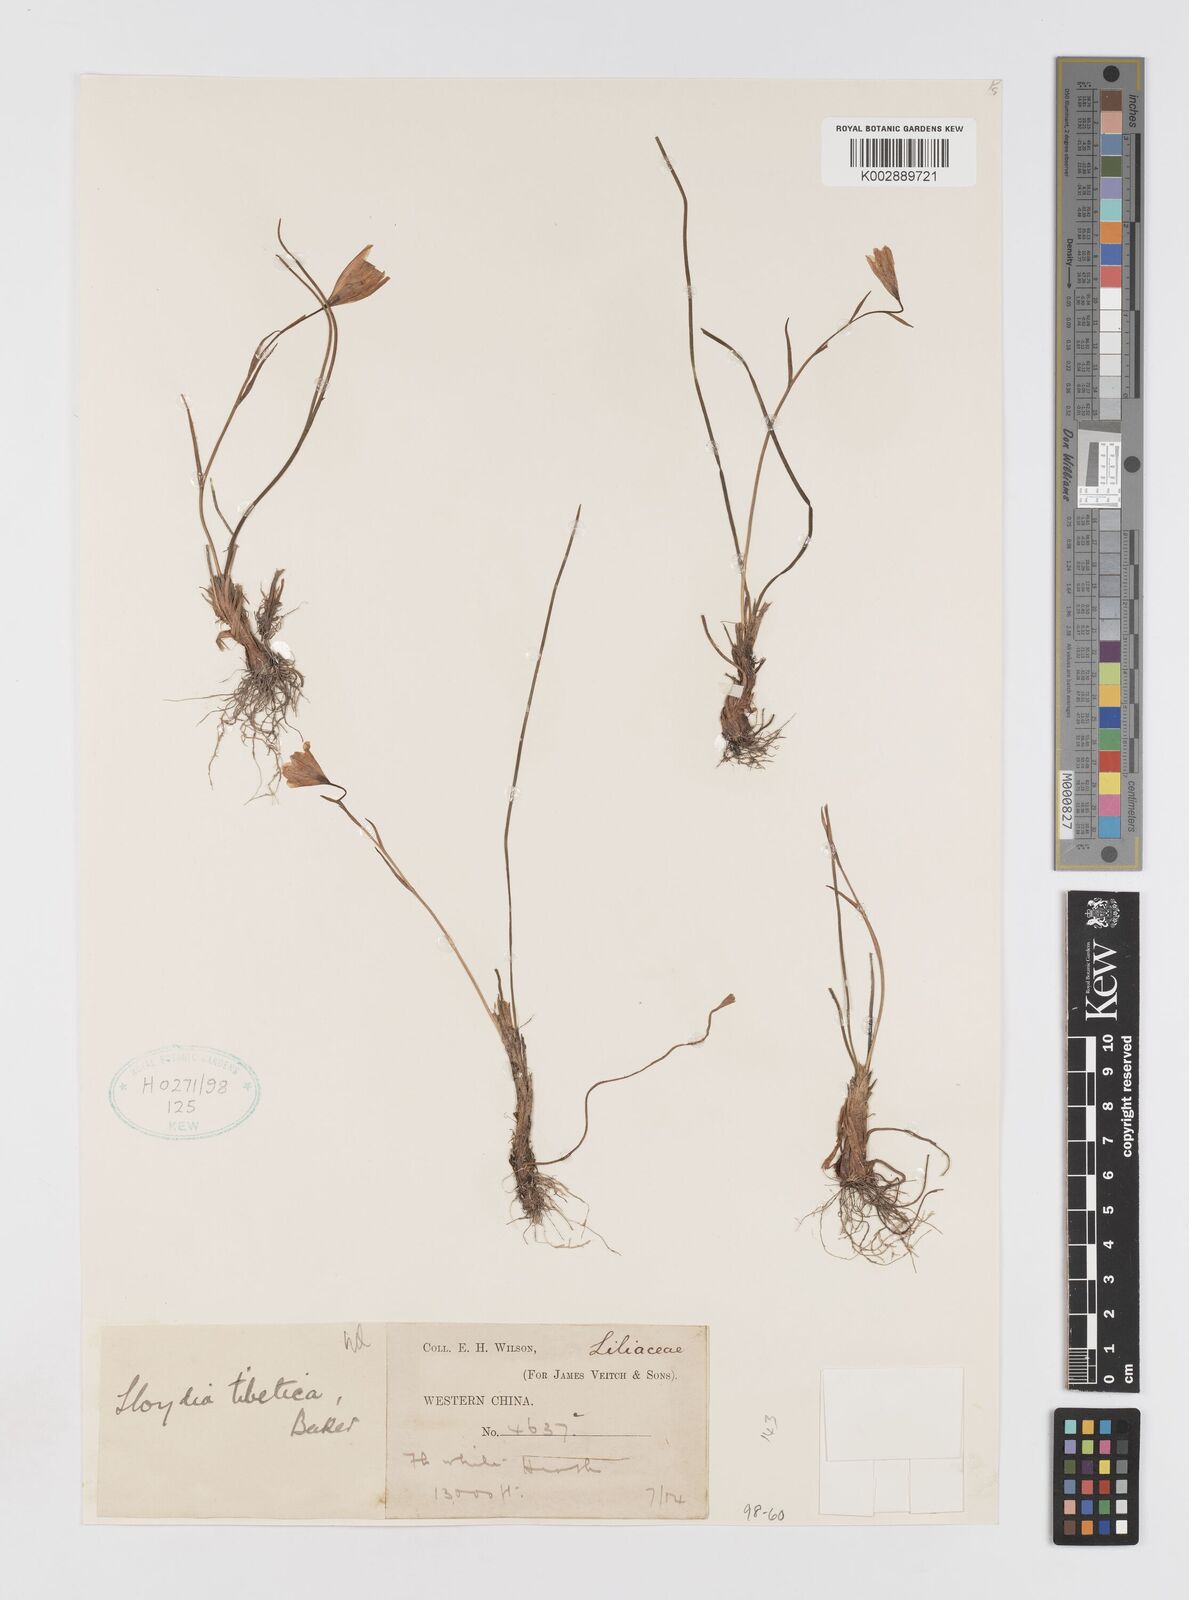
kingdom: Plantae
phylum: Tracheophyta
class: Liliopsida
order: Liliales
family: Liliaceae
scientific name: Liliaceae
